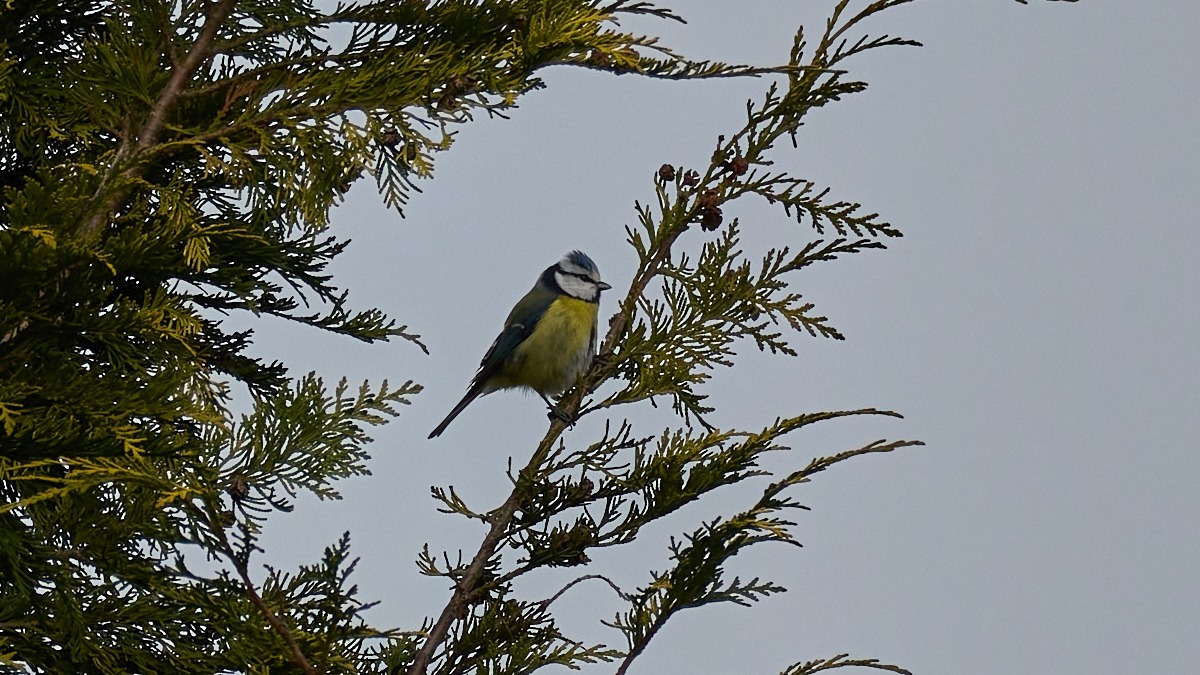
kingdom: Animalia
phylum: Chordata
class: Aves
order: Passeriformes
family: Paridae
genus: Cyanistes
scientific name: Cyanistes caeruleus
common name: Blåmejse
